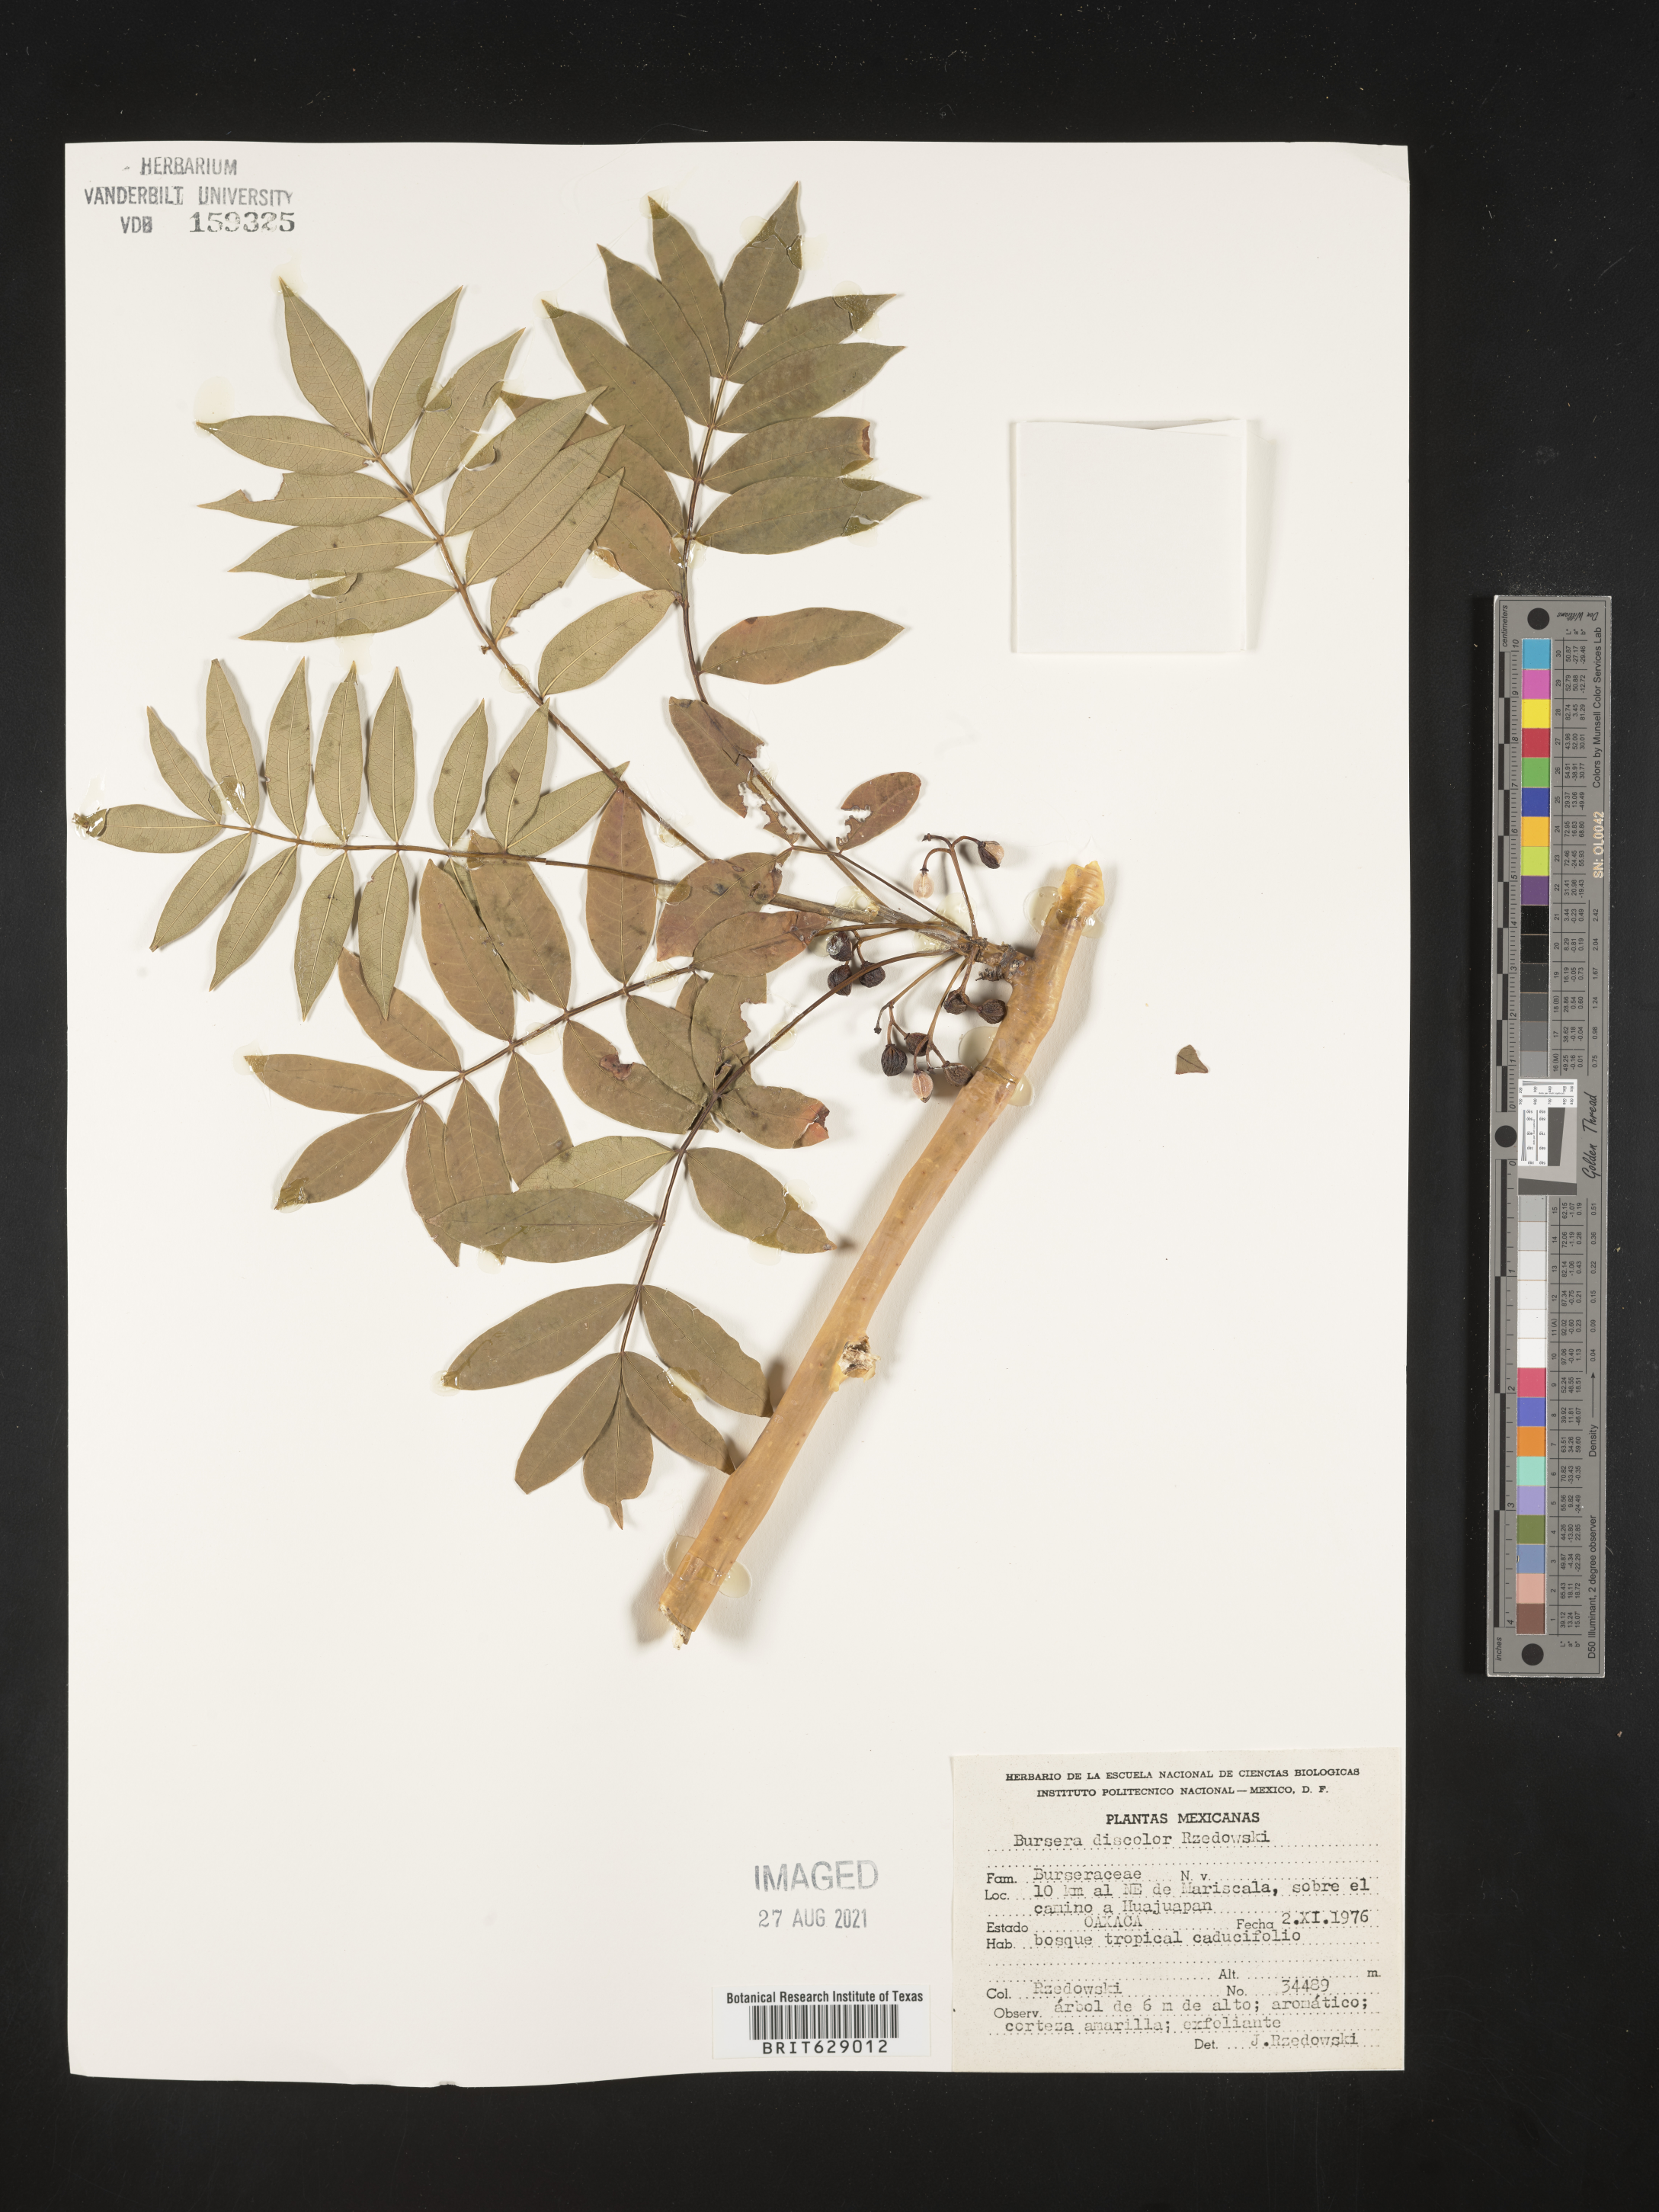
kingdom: Plantae
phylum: Tracheophyta
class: Magnoliopsida
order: Sapindales
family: Burseraceae
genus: Bursera
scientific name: Bursera
